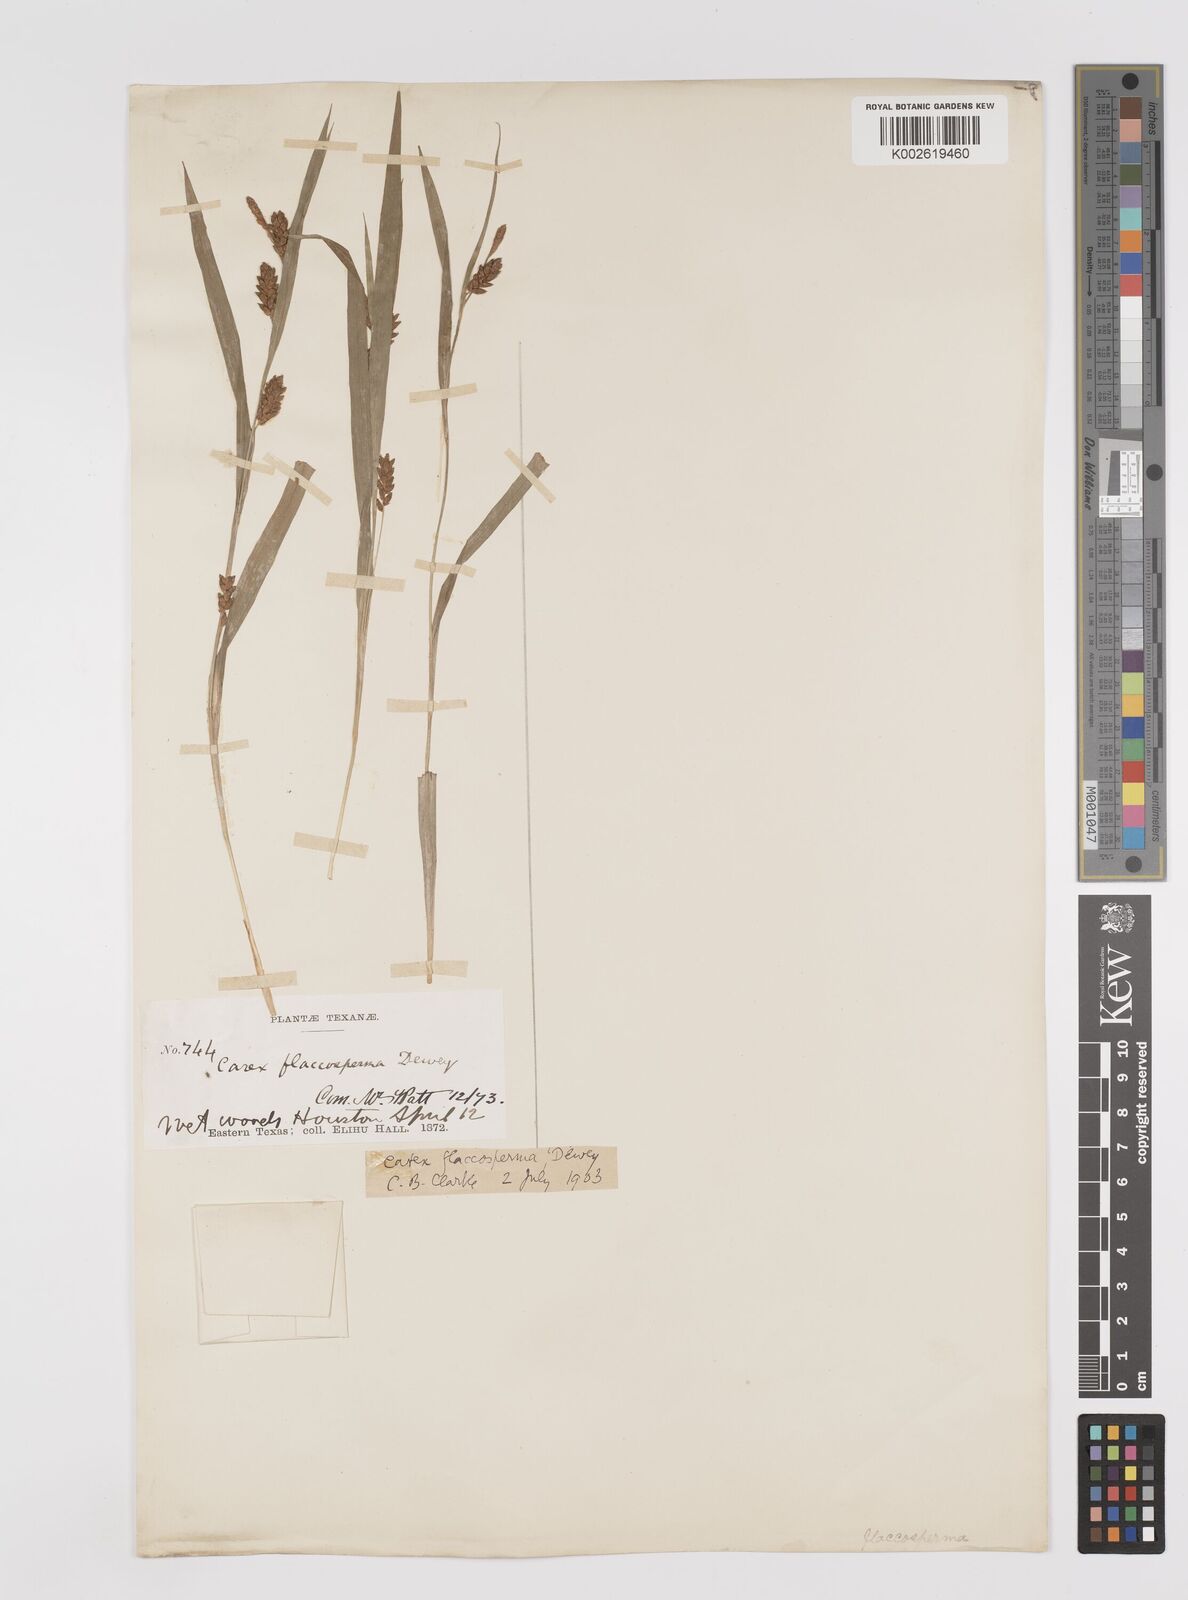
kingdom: Plantae
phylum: Tracheophyta
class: Liliopsida
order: Poales
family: Cyperaceae
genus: Carex
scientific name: Carex flaccosperma
